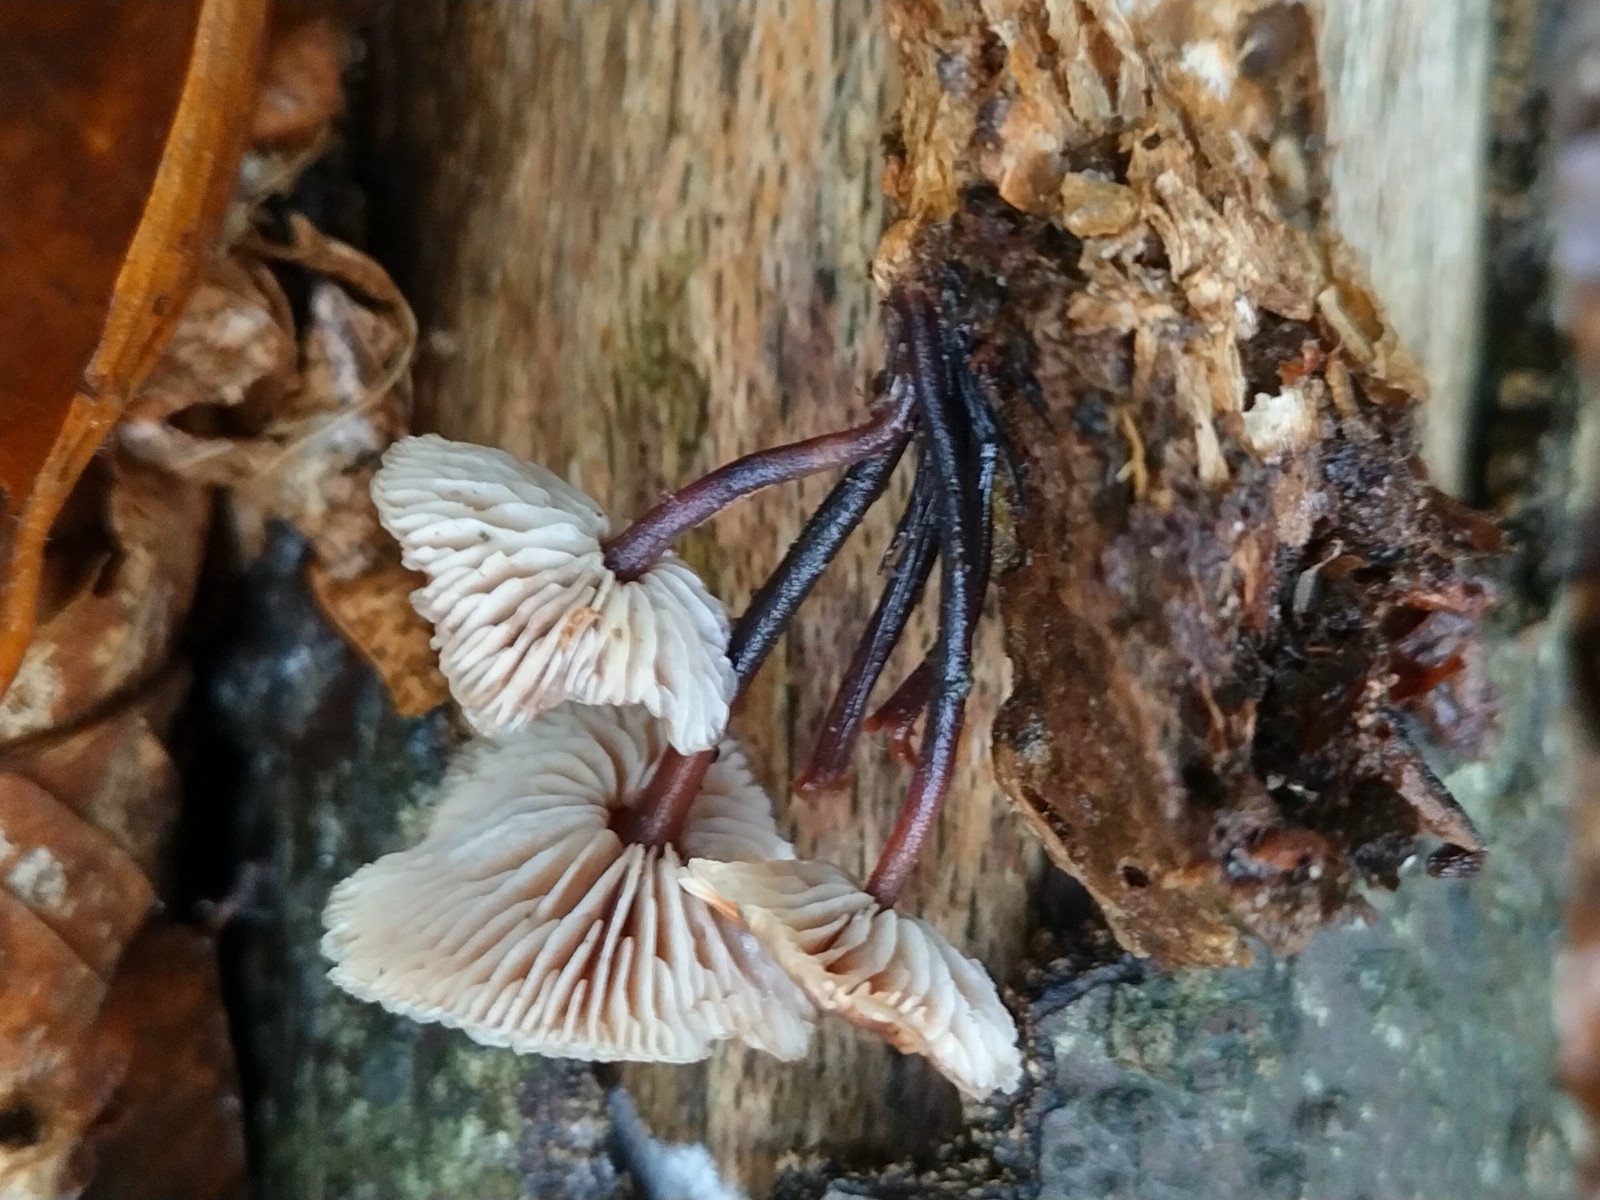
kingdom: Fungi
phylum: Basidiomycota
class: Agaricomycetes
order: Agaricales
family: Omphalotaceae
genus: Gymnopus
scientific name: Gymnopus foetidus
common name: stinkende fladhat
